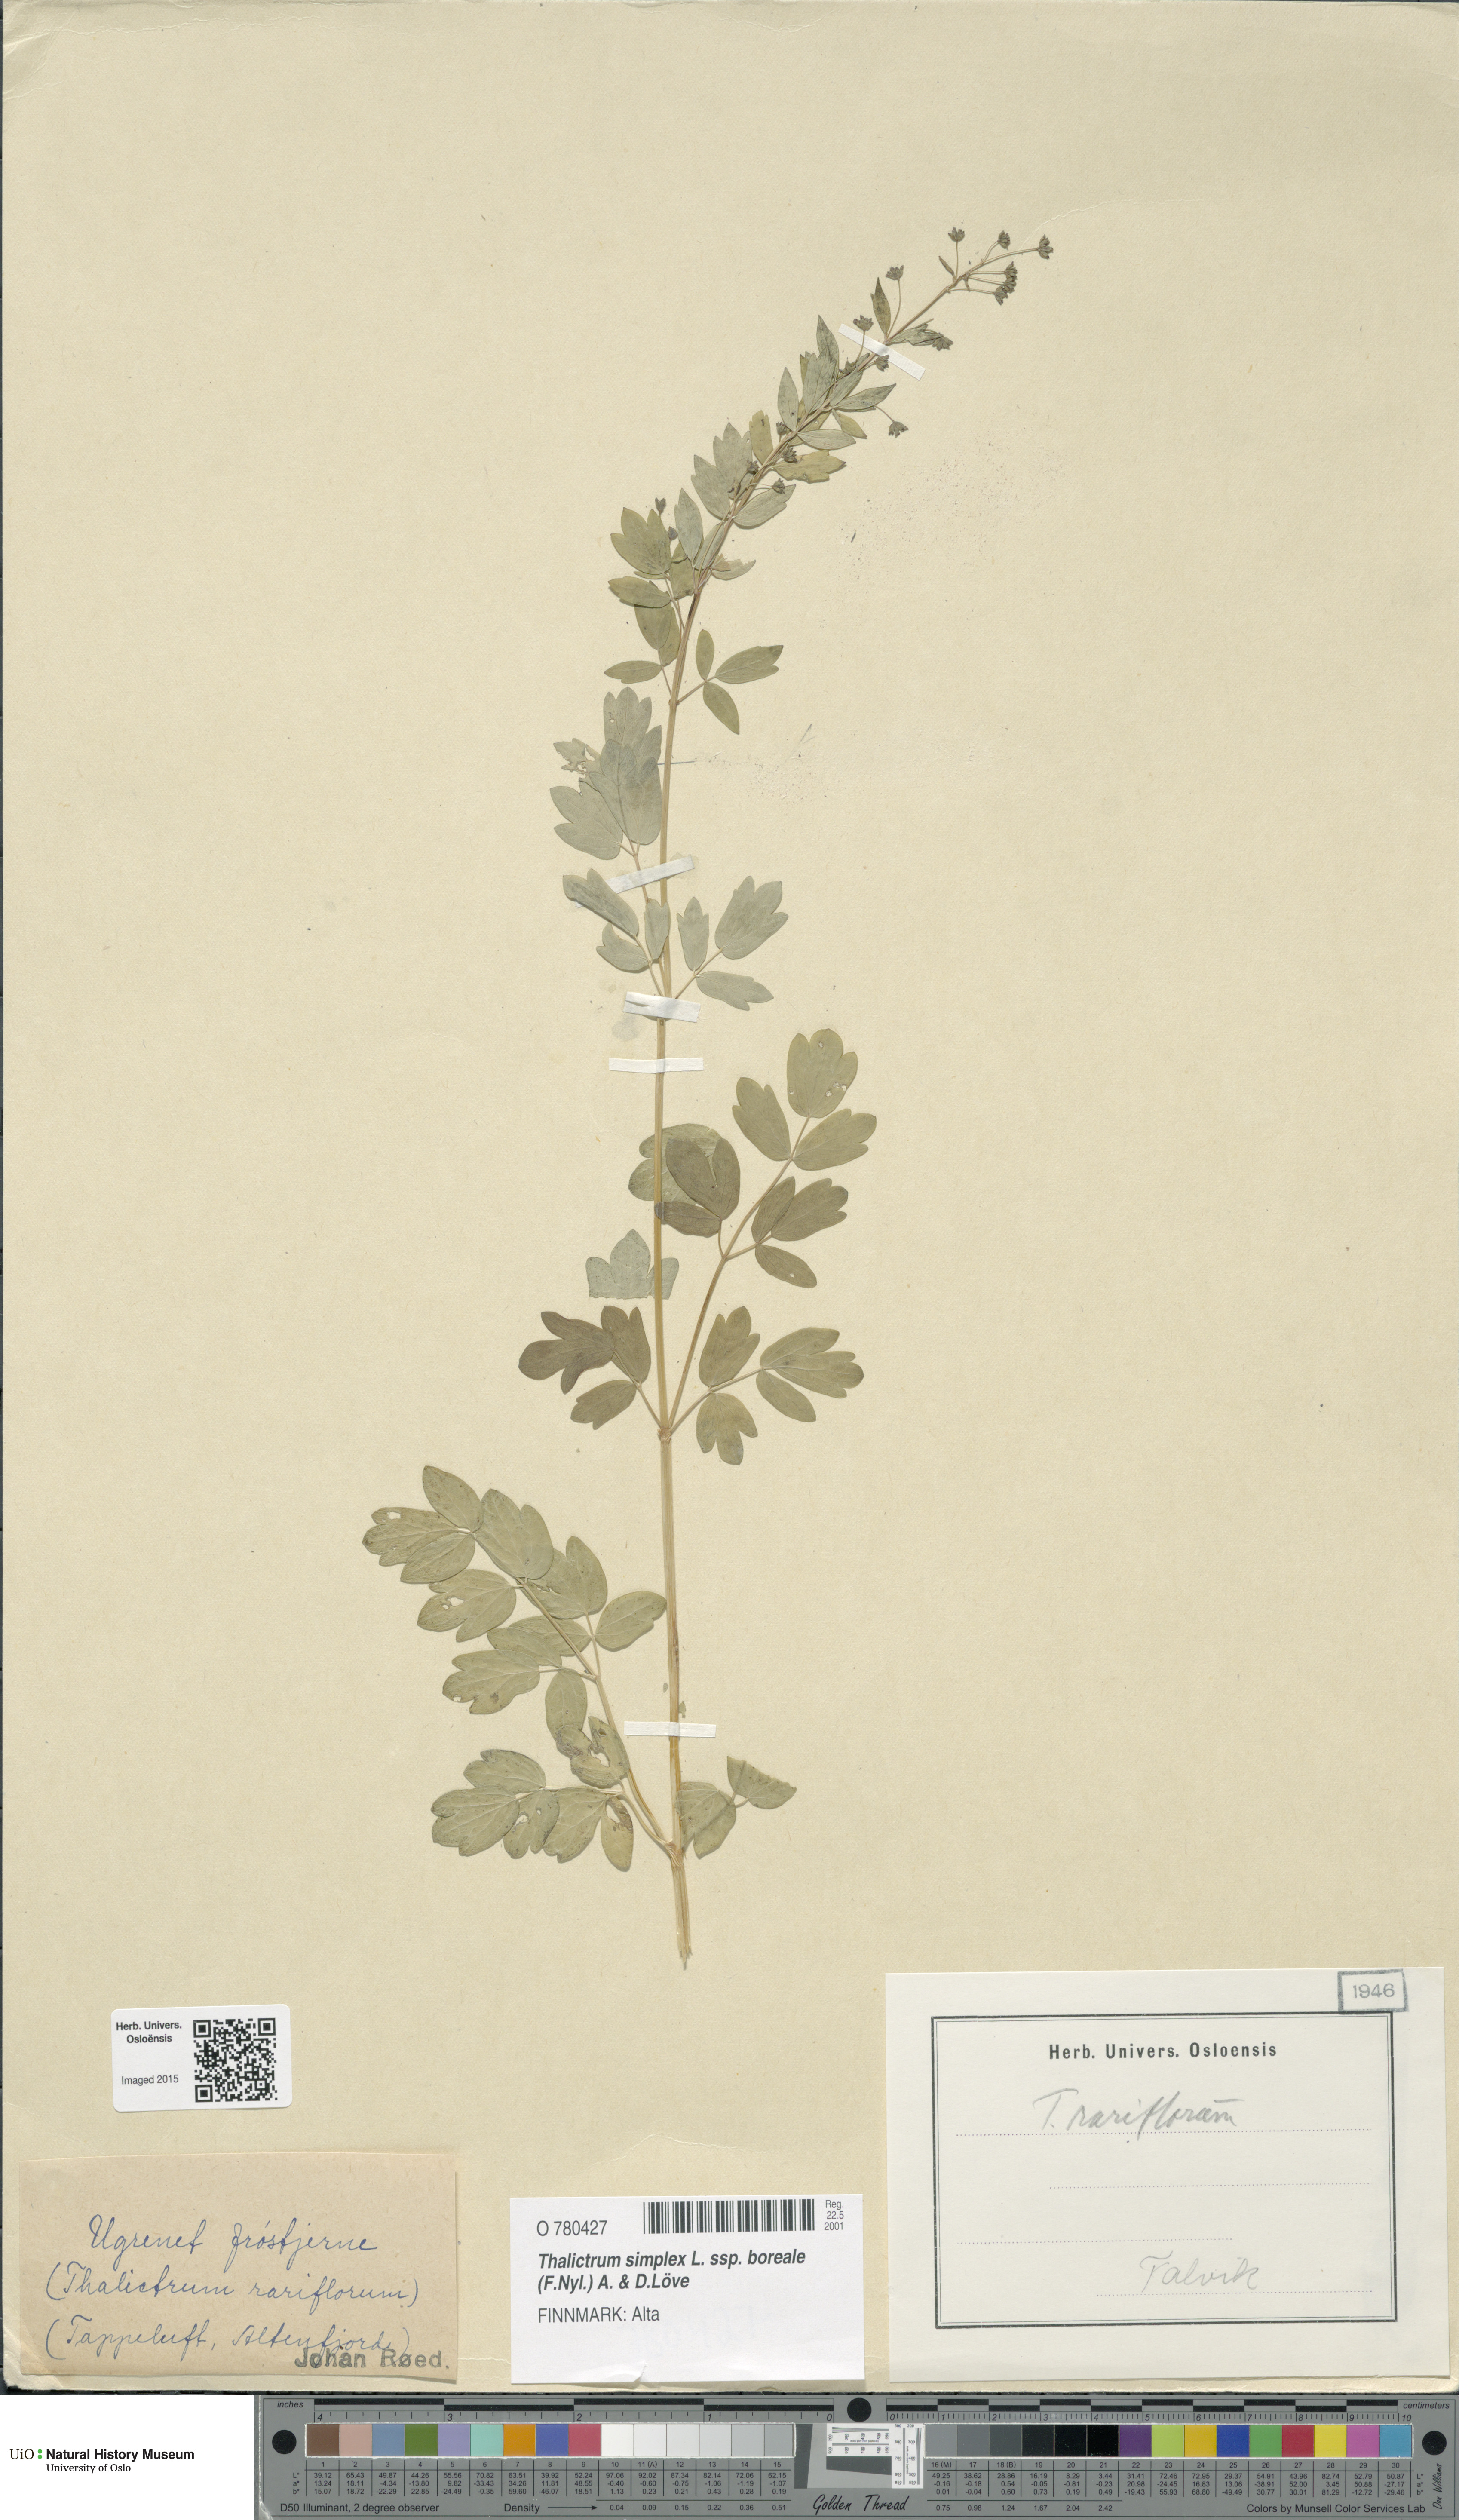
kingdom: Plantae
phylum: Tracheophyta
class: Magnoliopsida
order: Ranunculales
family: Ranunculaceae
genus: Thalictrum
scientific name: Thalictrum simplex
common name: Small meadow-rue
